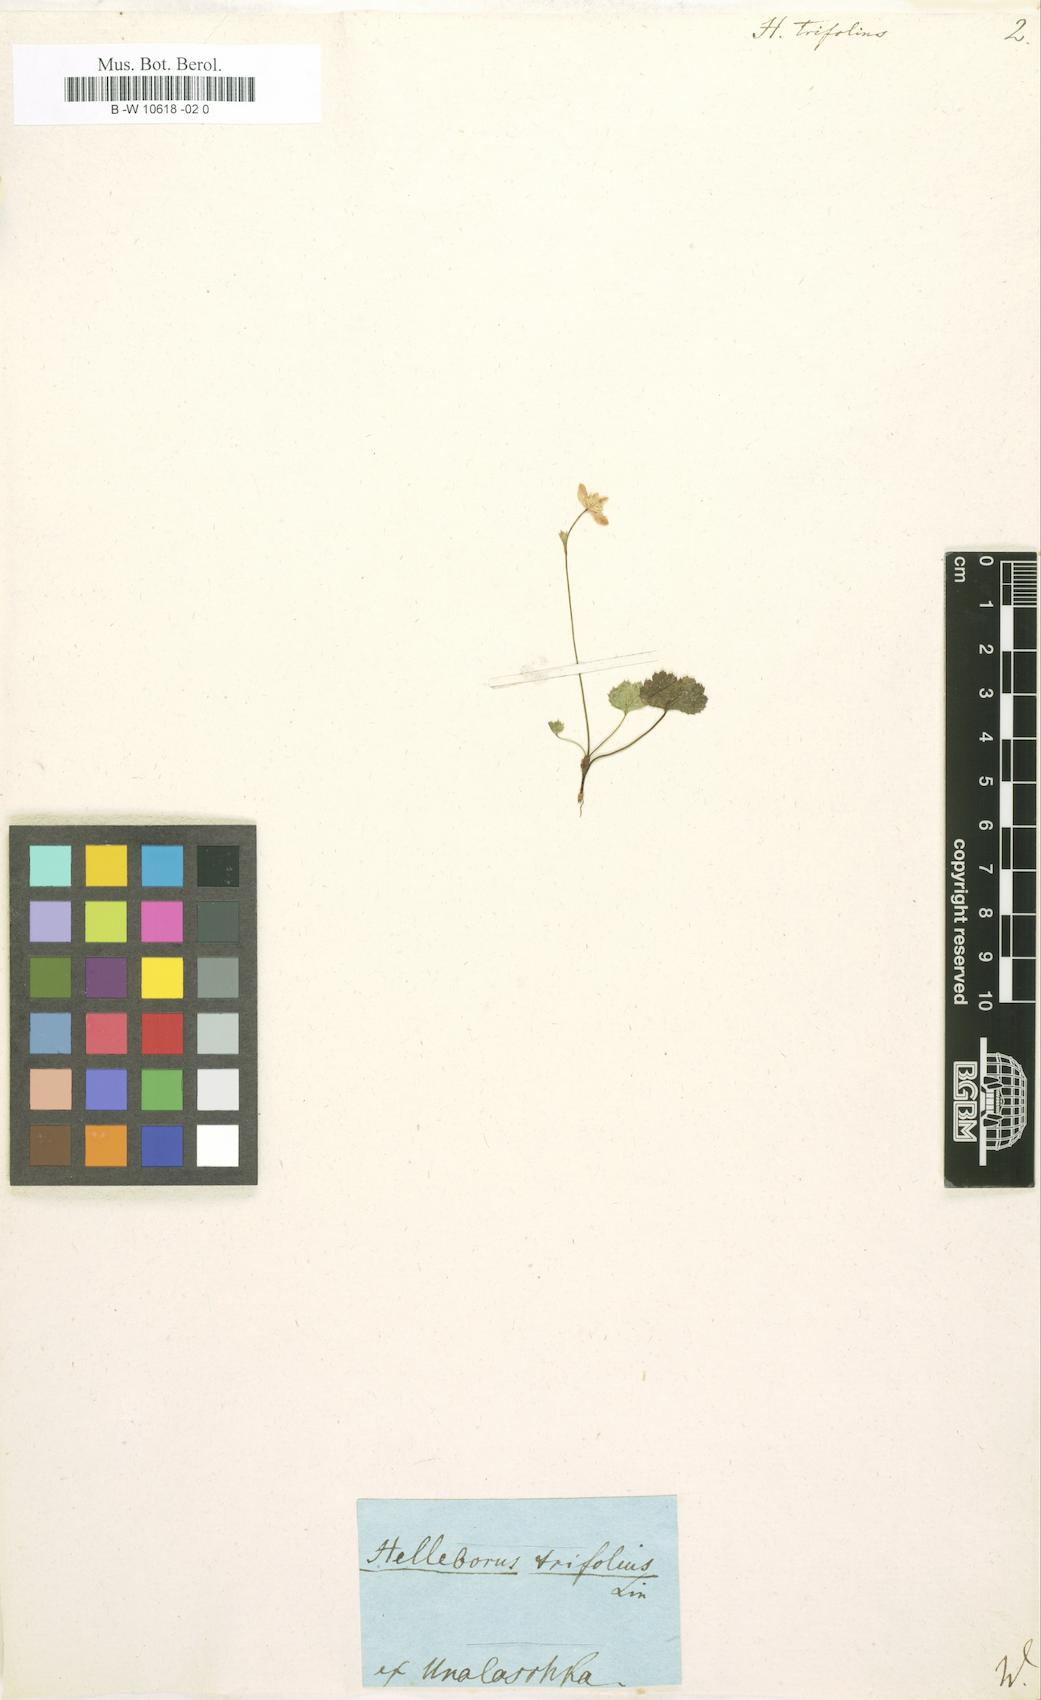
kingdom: Plantae
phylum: Tracheophyta
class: Magnoliopsida
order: Ranunculales
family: Ranunculaceae
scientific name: Ranunculaceae
